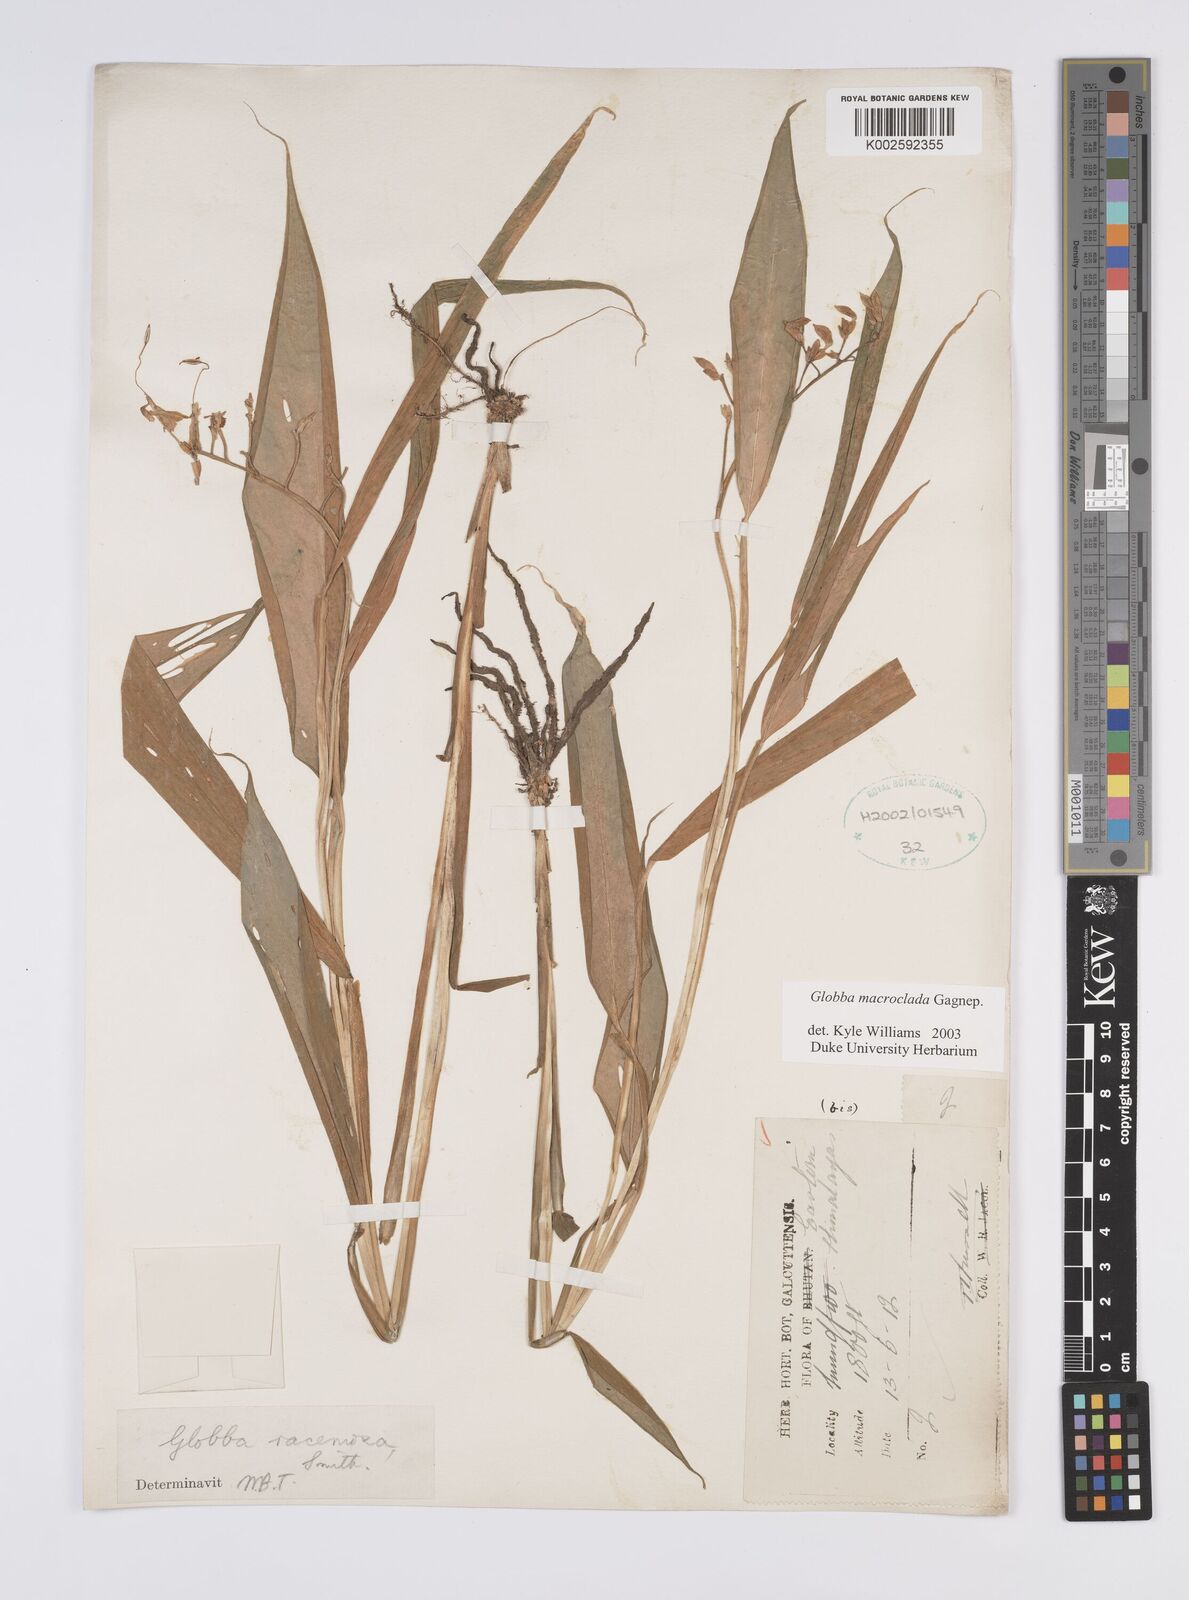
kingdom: Plantae
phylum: Tracheophyta
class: Liliopsida
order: Zingiberales
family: Zingiberaceae
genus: Globba
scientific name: Globba macroclada
